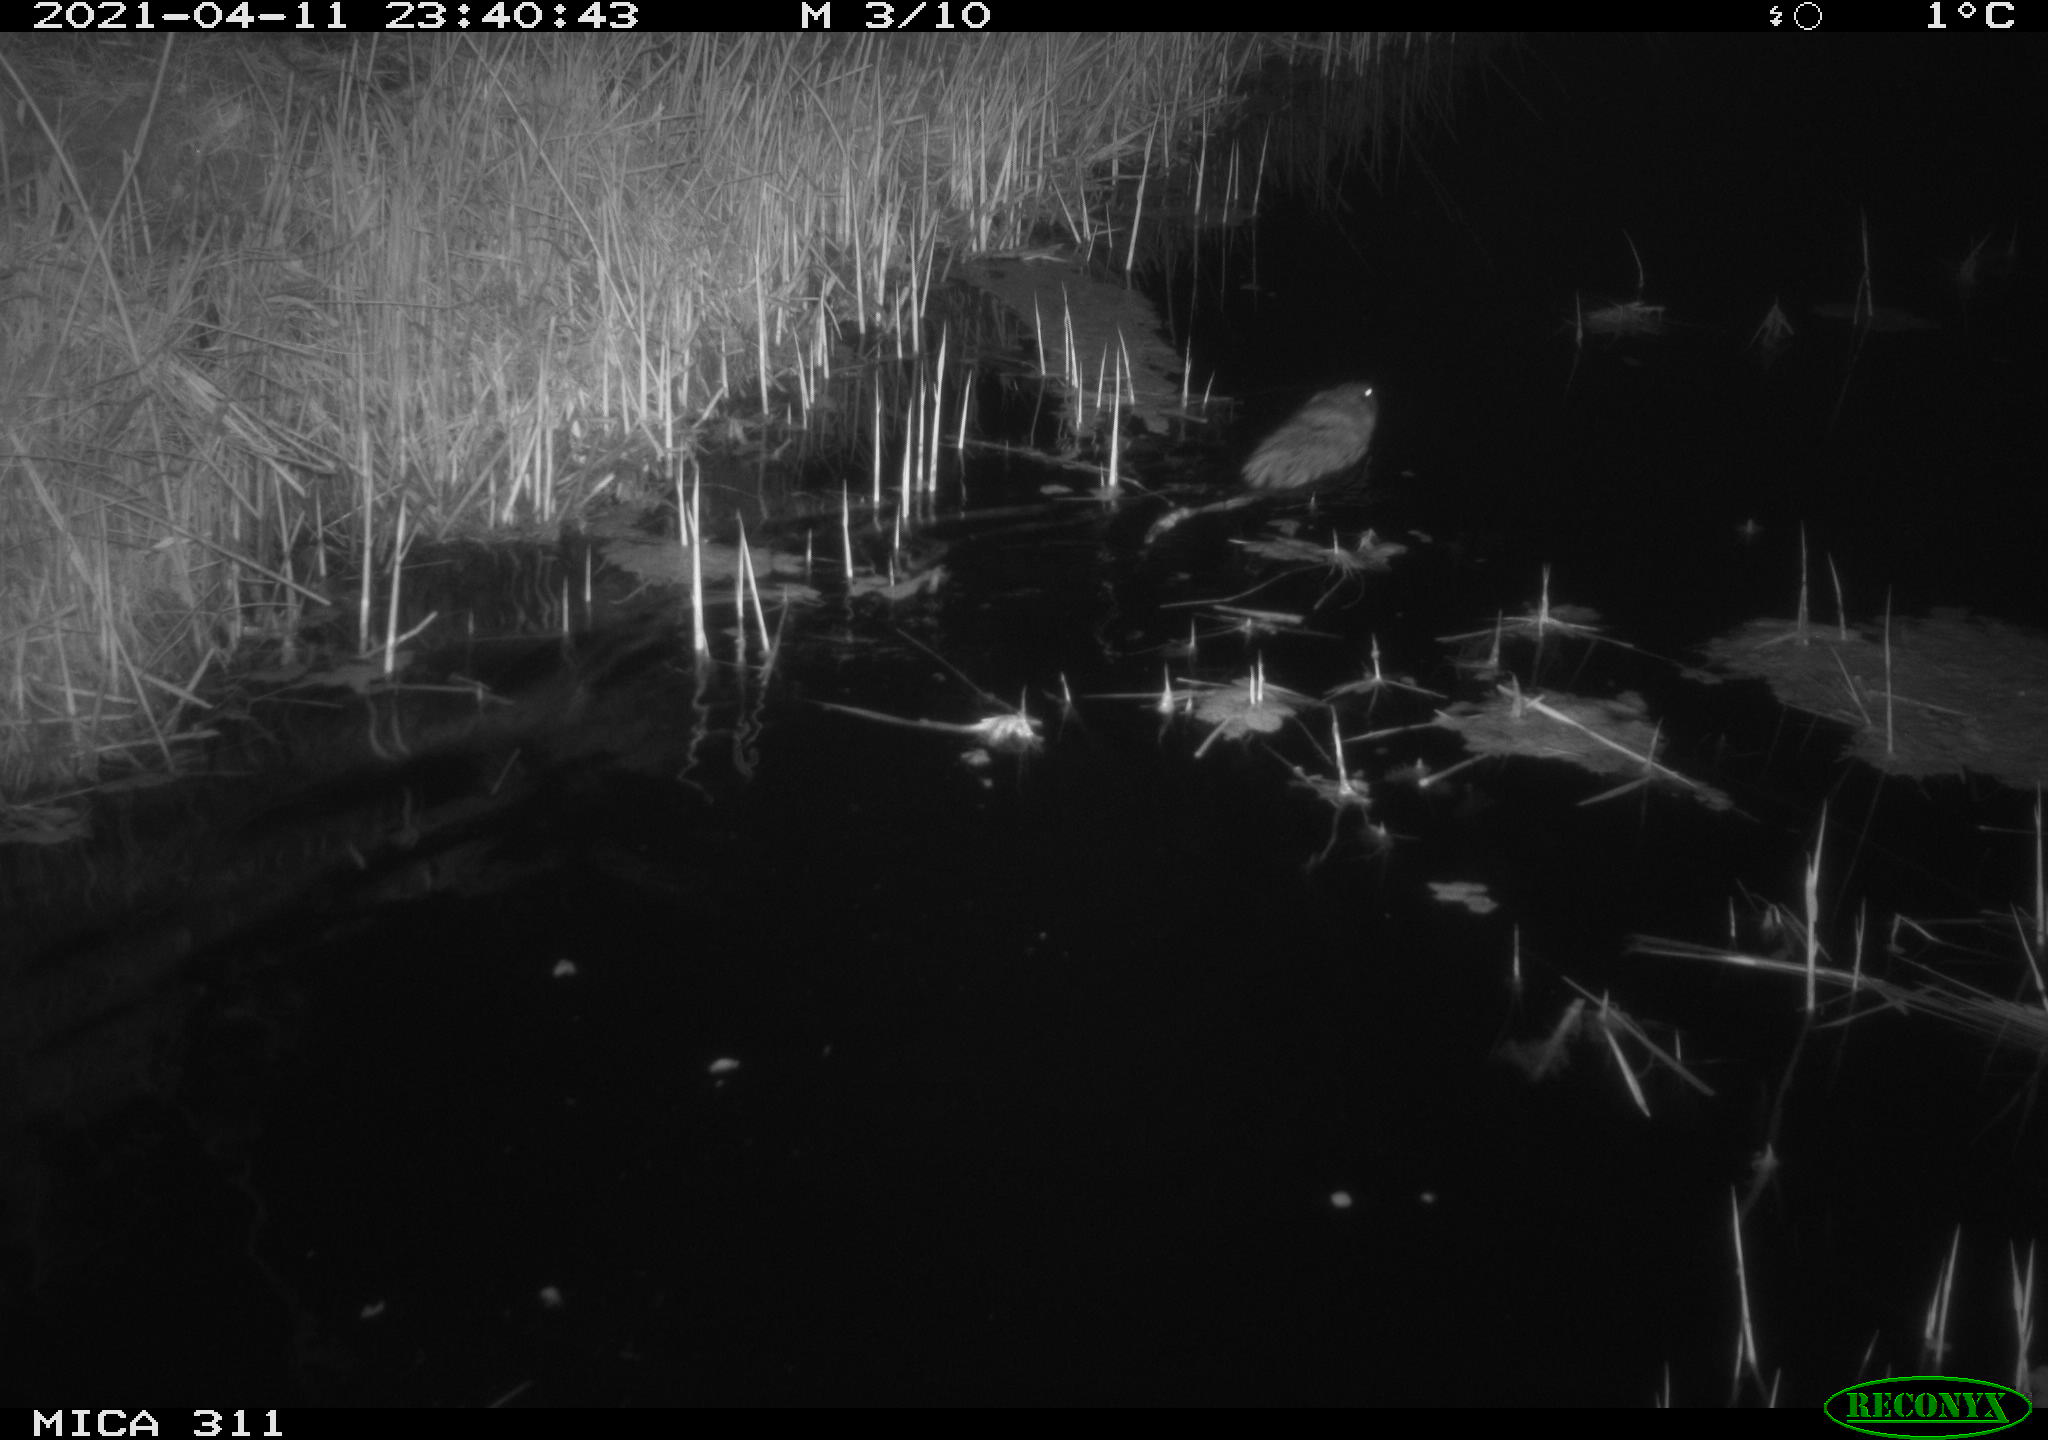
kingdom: Animalia
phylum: Chordata
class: Mammalia
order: Rodentia
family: Cricetidae
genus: Ondatra
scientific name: Ondatra zibethicus
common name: Muskrat
